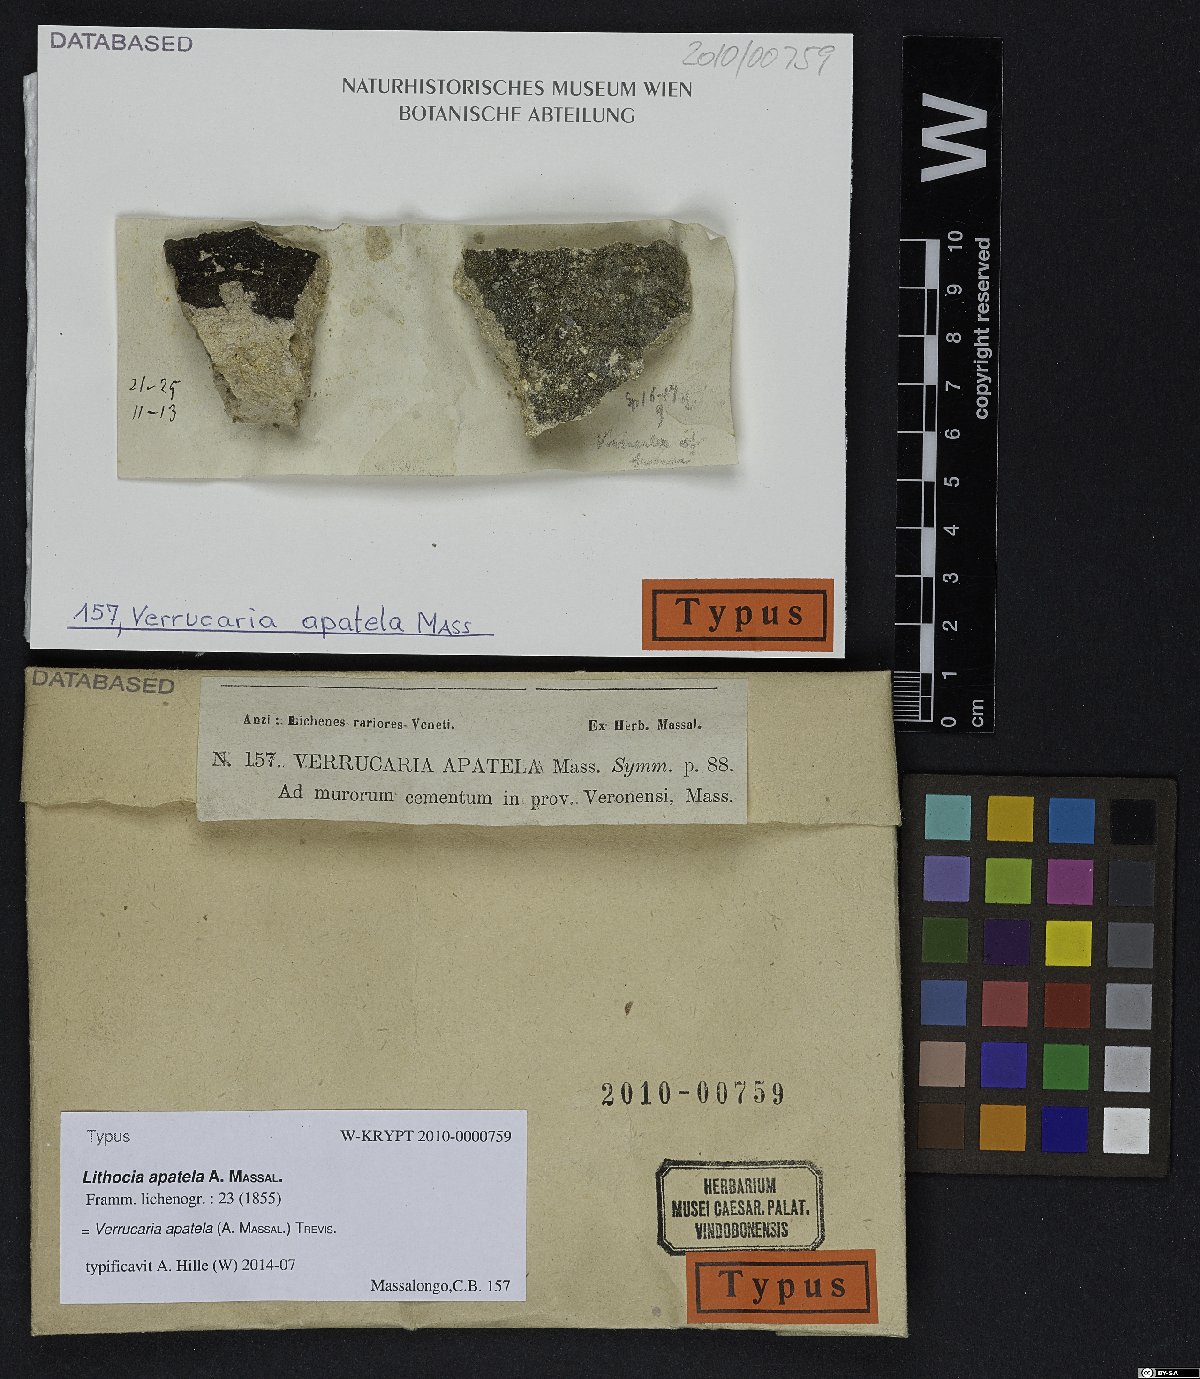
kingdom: Fungi
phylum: Ascomycota
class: Eurotiomycetes
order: Verrucariales
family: Verrucariaceae
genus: Verrucaria
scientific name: Verrucaria apatela
